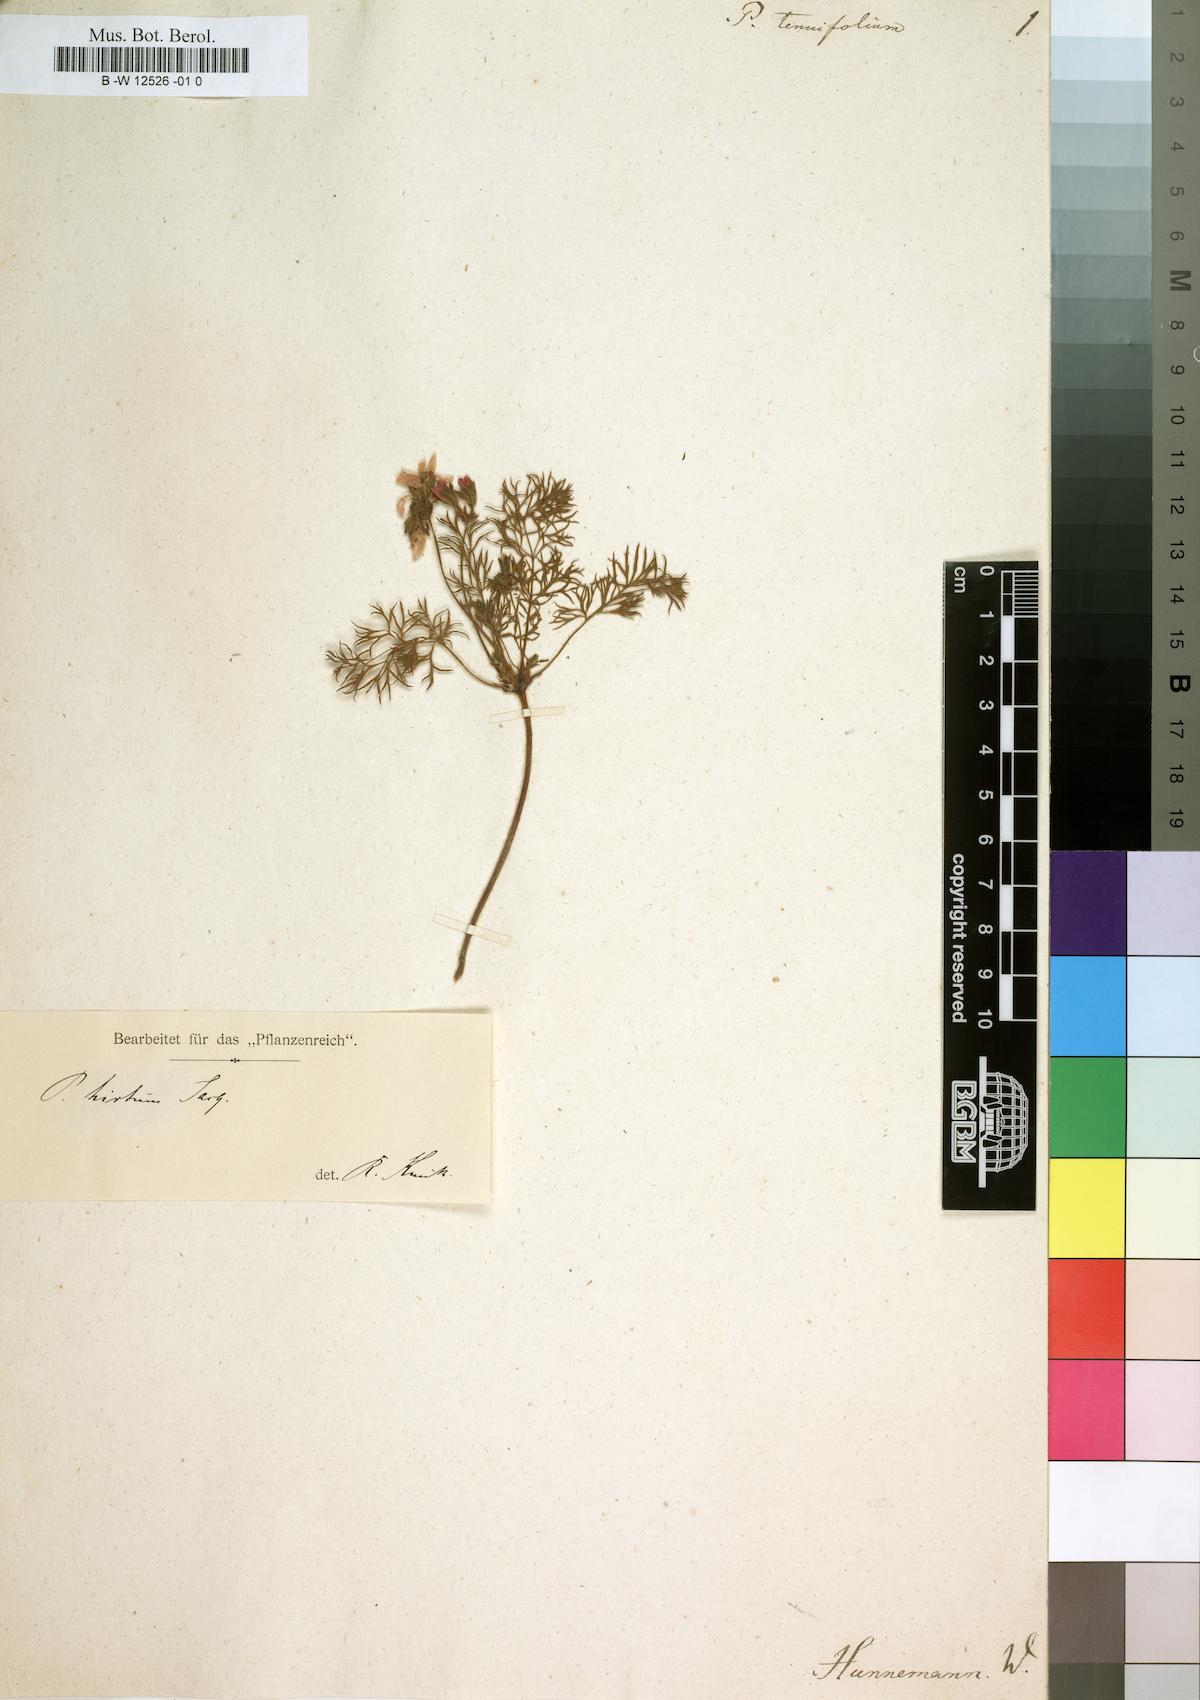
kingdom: Plantae
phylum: Tracheophyta
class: Magnoliopsida
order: Geraniales
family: Geraniaceae
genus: Pelargonium
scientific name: Pelargonium hirtum
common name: Fine-leaf pelargonium
